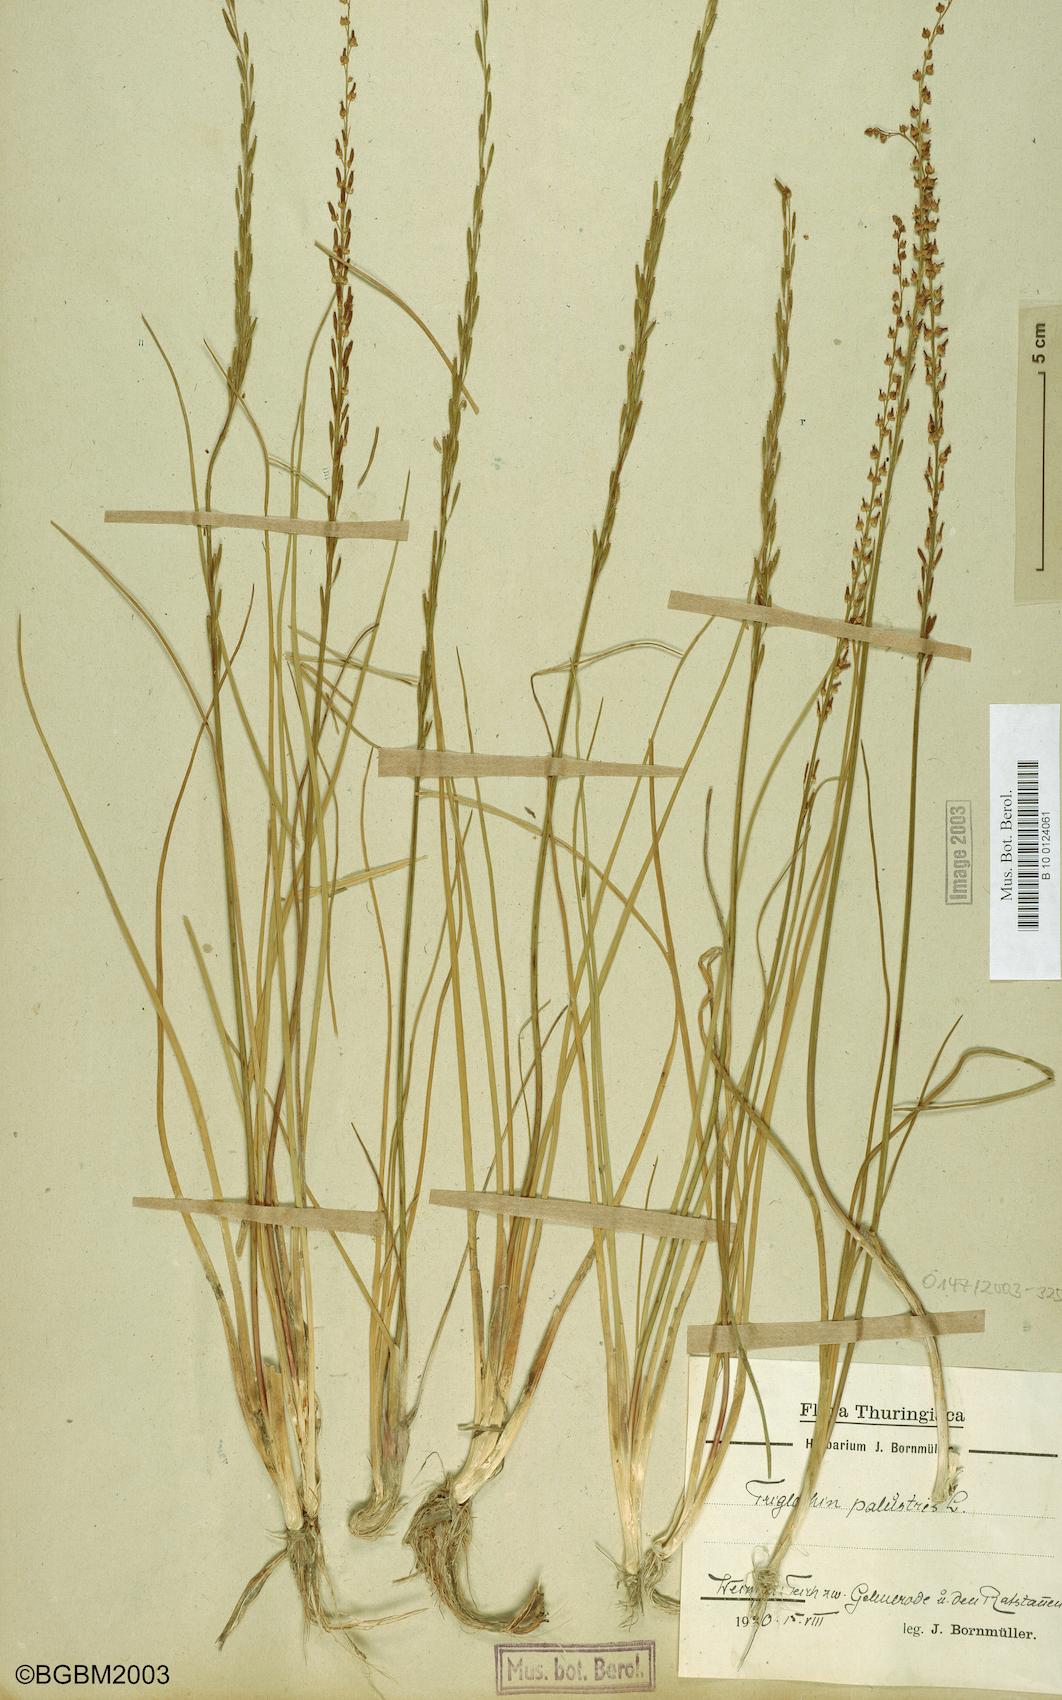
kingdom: Plantae
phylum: Tracheophyta
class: Liliopsida
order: Alismatales
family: Juncaginaceae
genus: Triglochin
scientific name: Triglochin palustris
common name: Marsh arrowgrass
